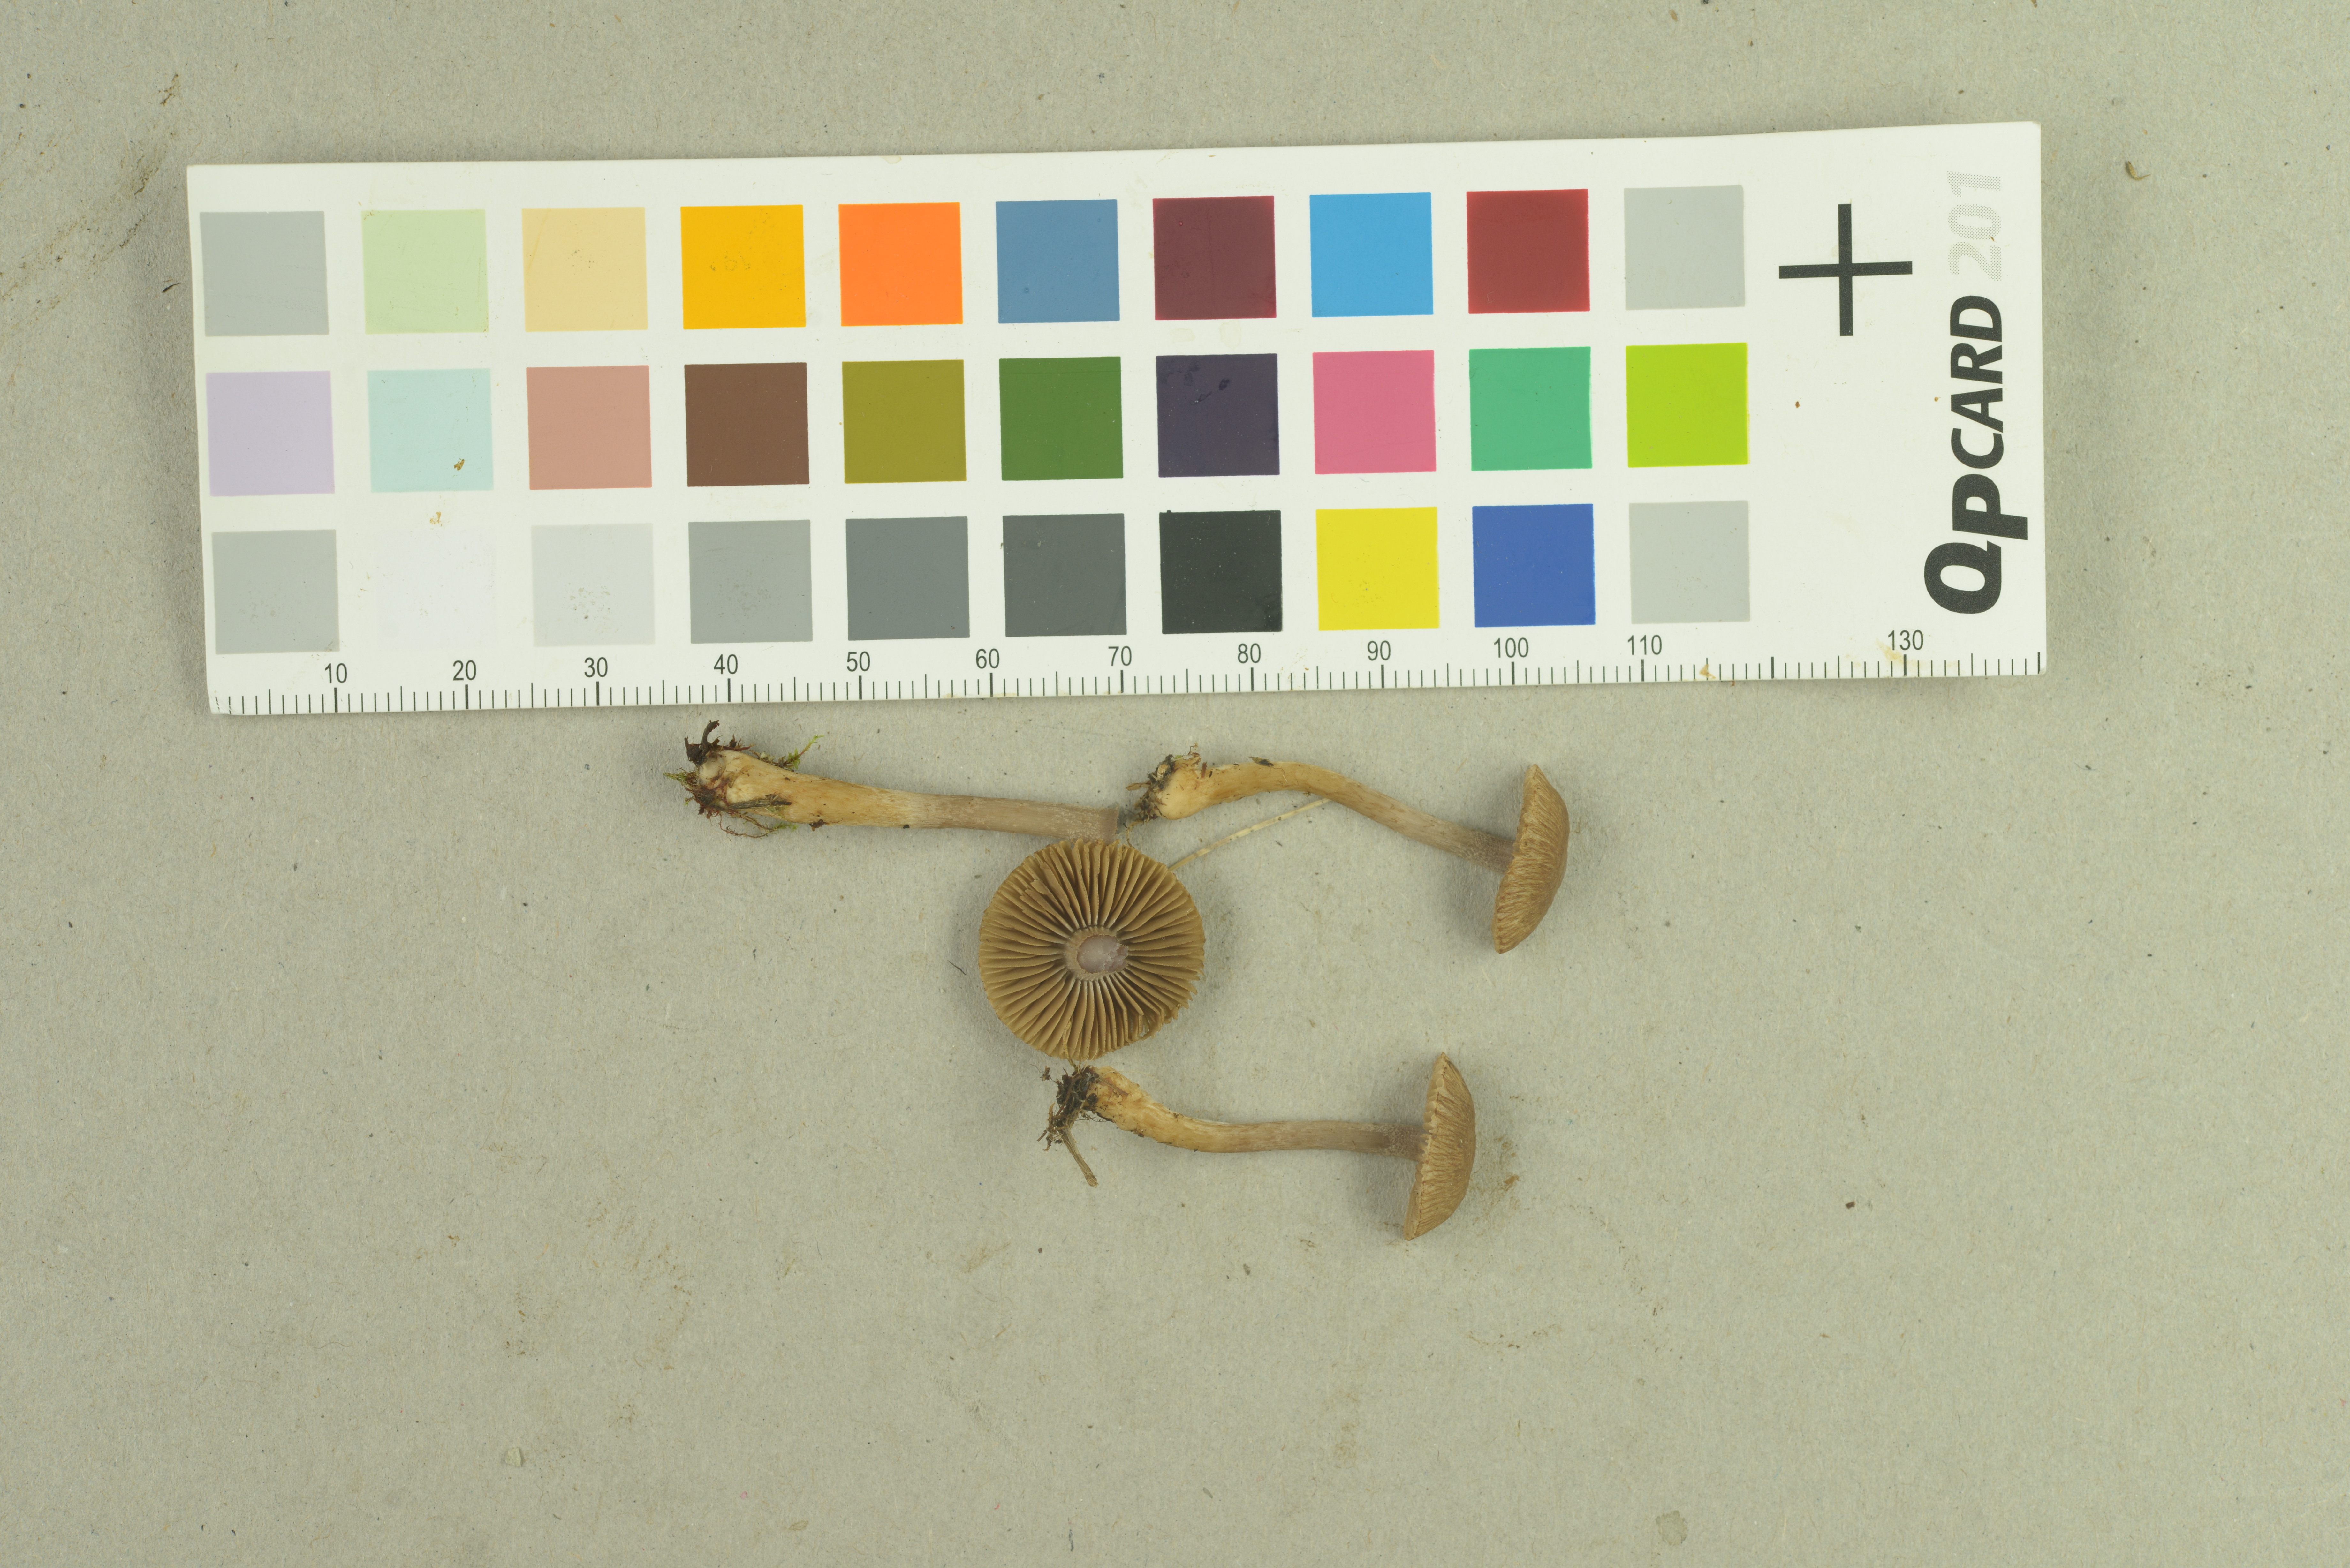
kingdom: Fungi
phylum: Basidiomycota
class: Agaricomycetes
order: Agaricales
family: Inocybaceae
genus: Inocybe
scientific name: Inocybe cincinnata
